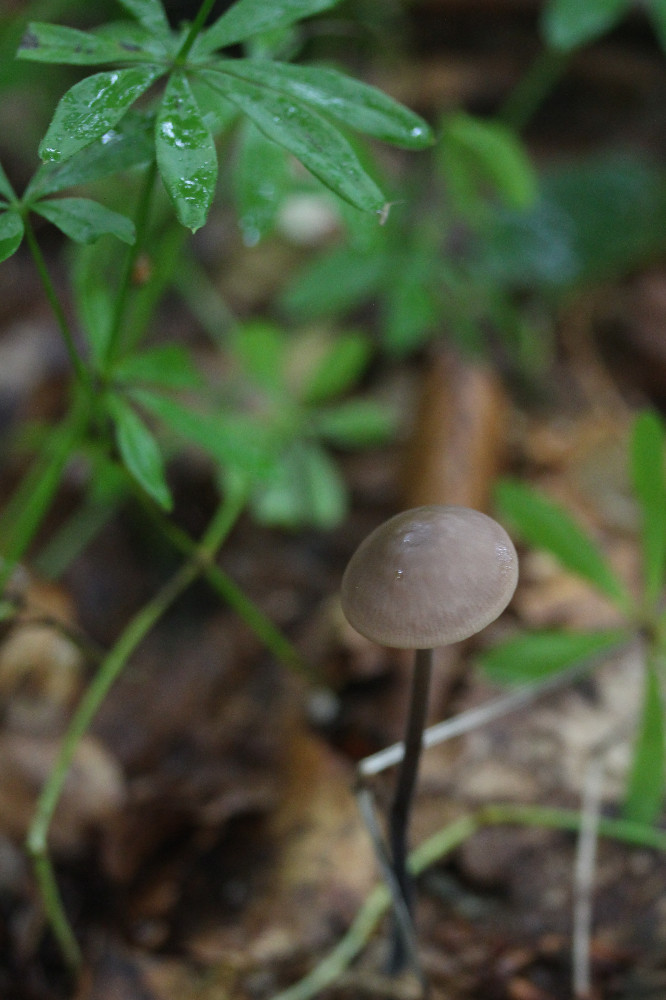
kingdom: Fungi
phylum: Basidiomycota
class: Agaricomycetes
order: Agaricales
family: Omphalotaceae
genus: Mycetinis
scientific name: Mycetinis alliaceus
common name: stor løghat
